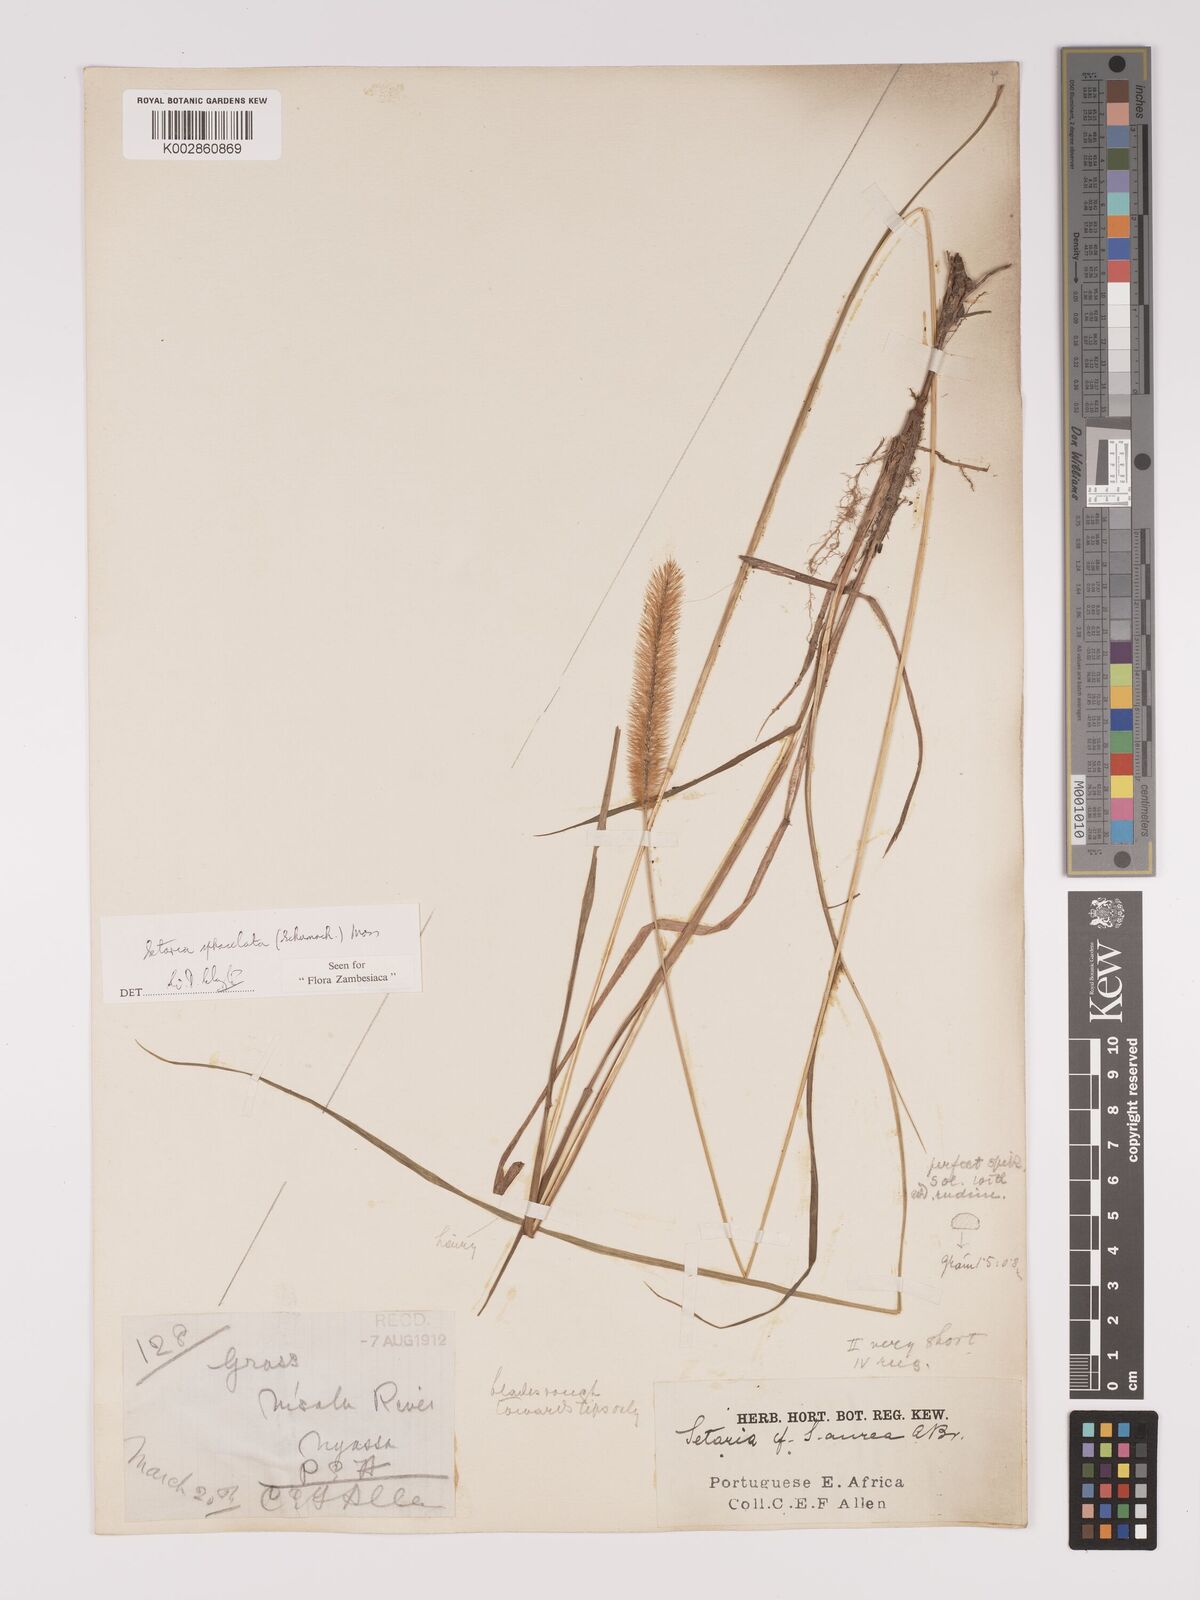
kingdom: Plantae
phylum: Tracheophyta
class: Liliopsida
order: Poales
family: Poaceae
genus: Setaria
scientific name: Setaria sphacelata
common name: African bristlegrass
